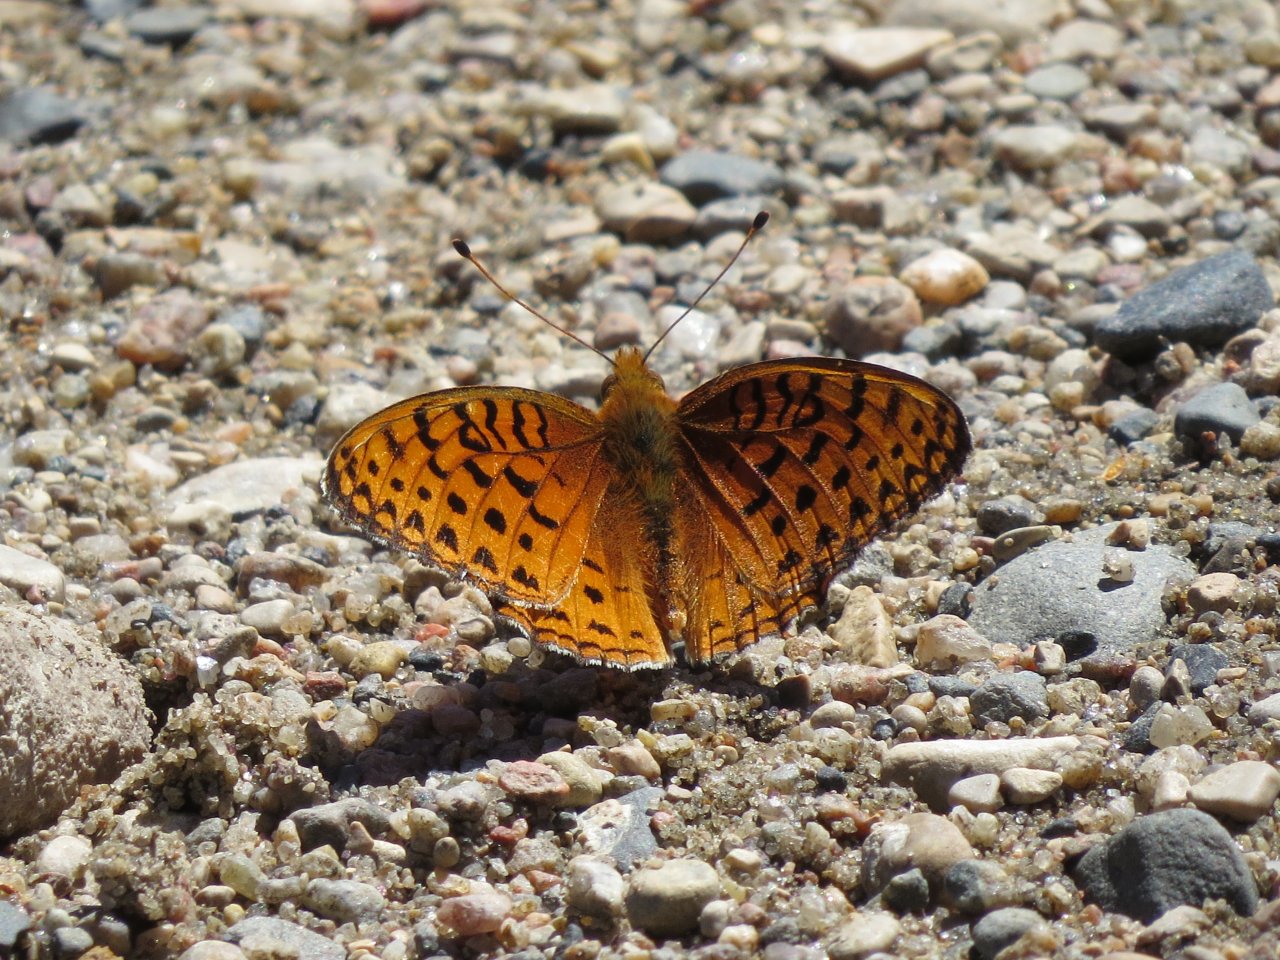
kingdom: Animalia
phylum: Arthropoda
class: Insecta
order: Lepidoptera
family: Nymphalidae
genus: Speyeria
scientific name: Speyeria atlantis
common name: Northwestern Fritillary
